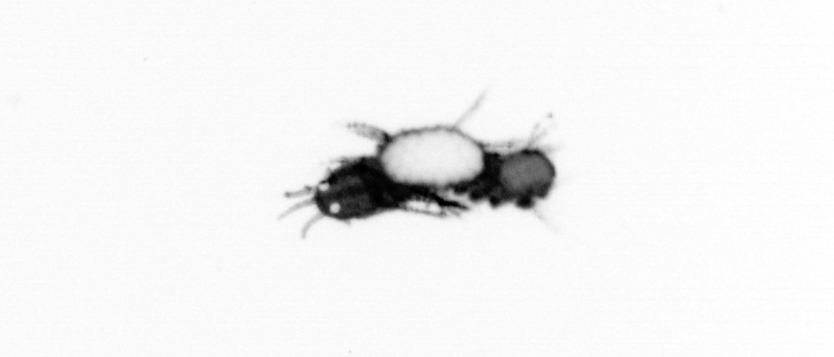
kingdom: Animalia
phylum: Annelida
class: Polychaeta
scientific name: Polychaeta
